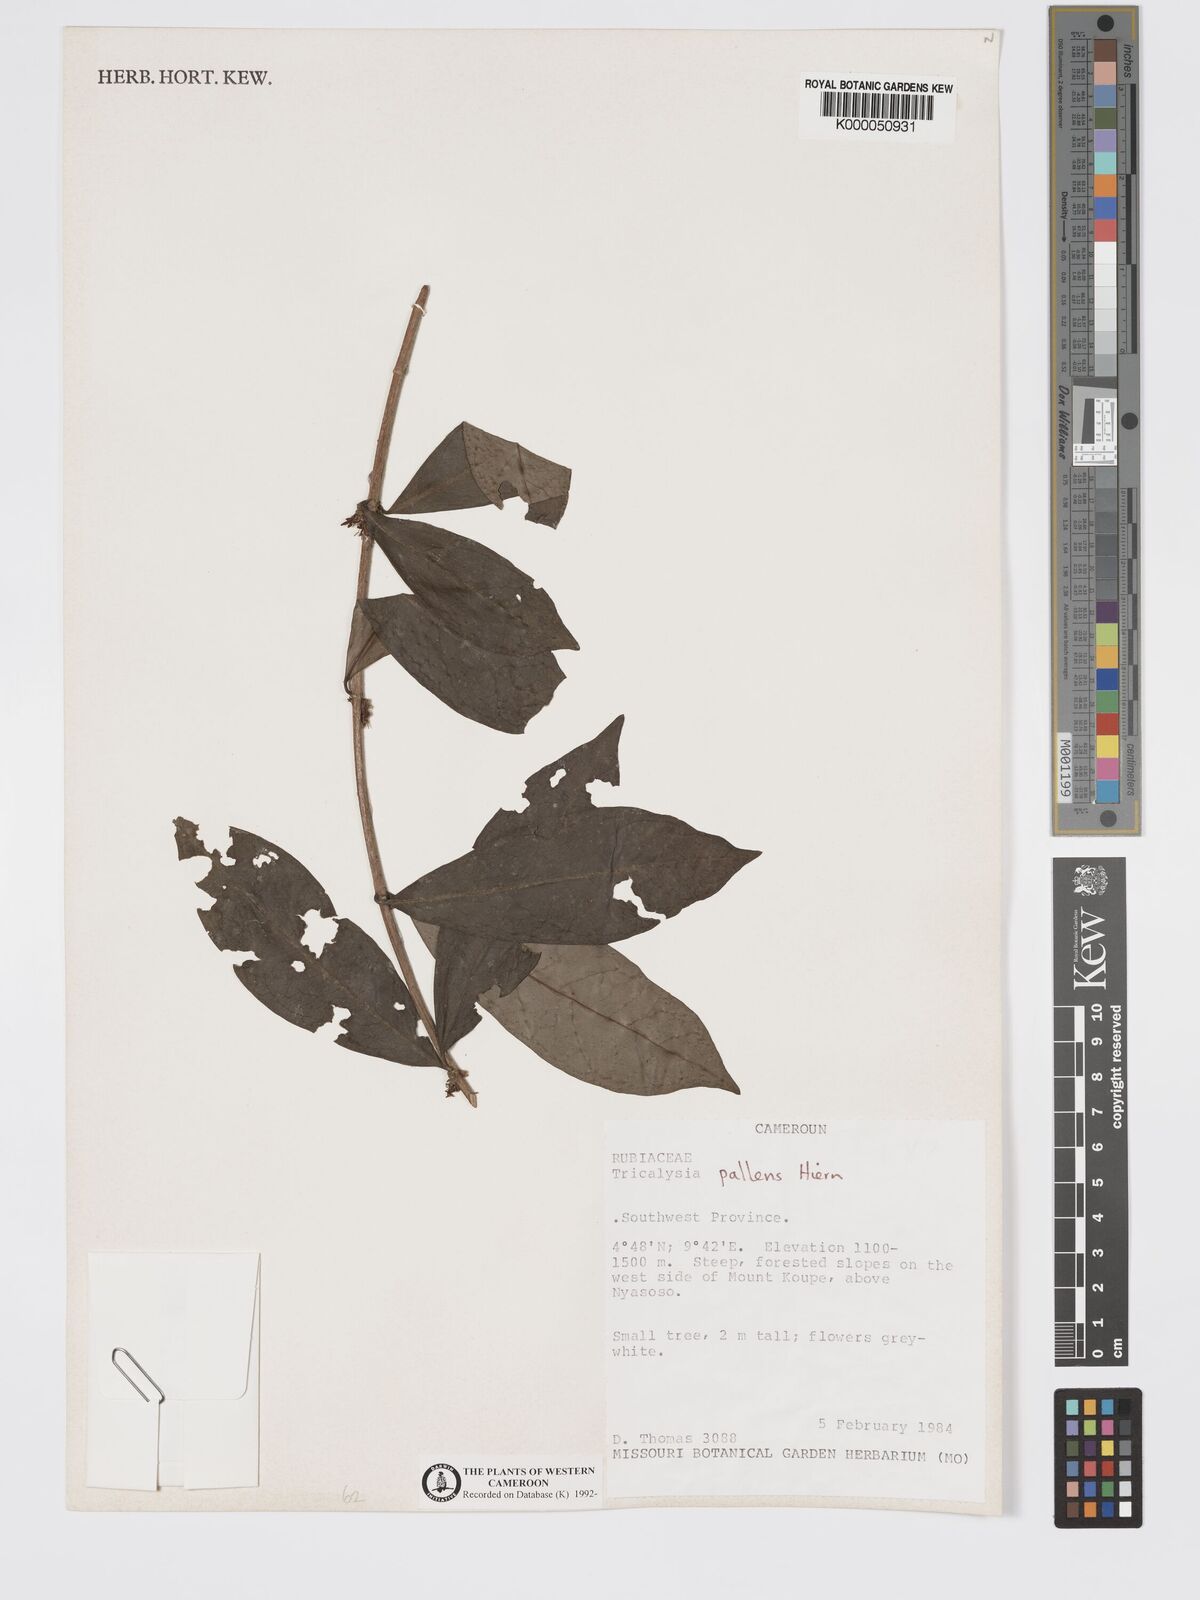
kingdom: Plantae
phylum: Tracheophyta
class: Magnoliopsida
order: Gentianales
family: Rubiaceae
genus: Tricalysia
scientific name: Tricalysia pallens
